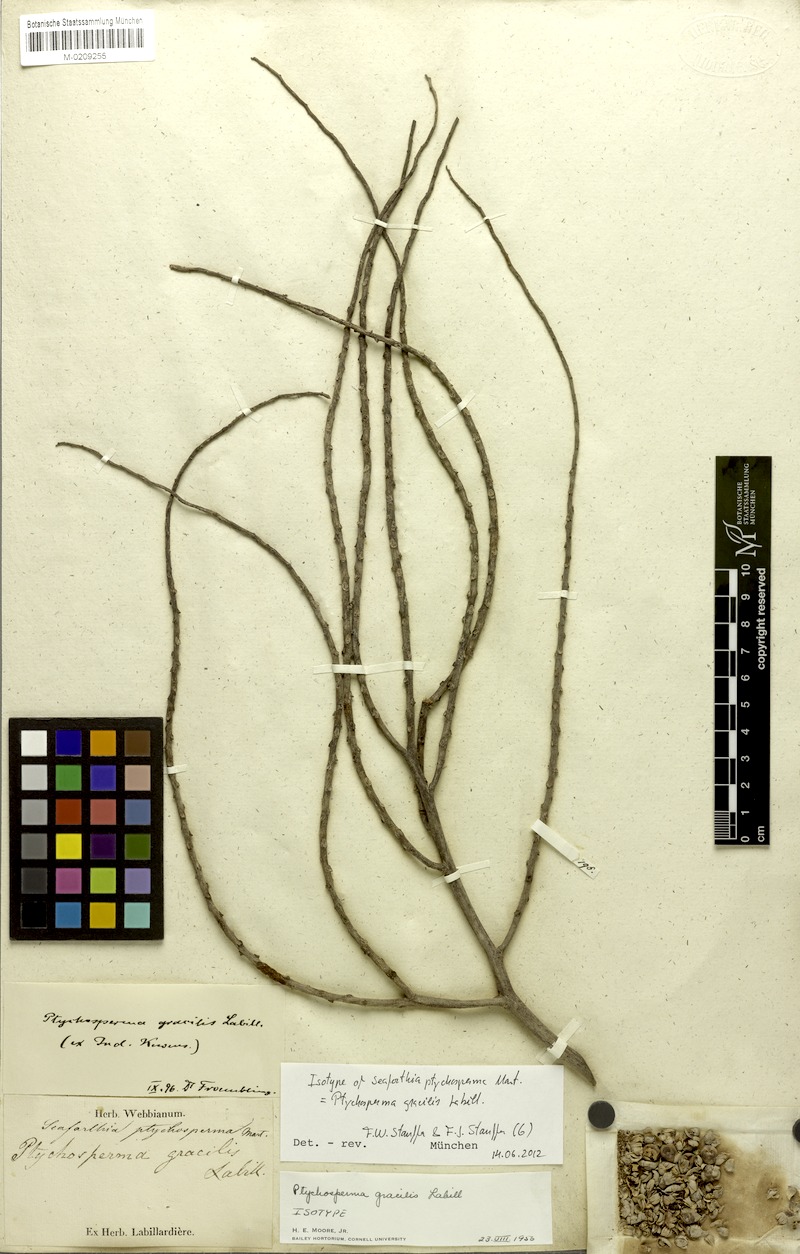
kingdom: Plantae
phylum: Tracheophyta
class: Liliopsida
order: Arecales
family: Arecaceae
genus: Ptychosperma
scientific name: Ptychosperma gracile
